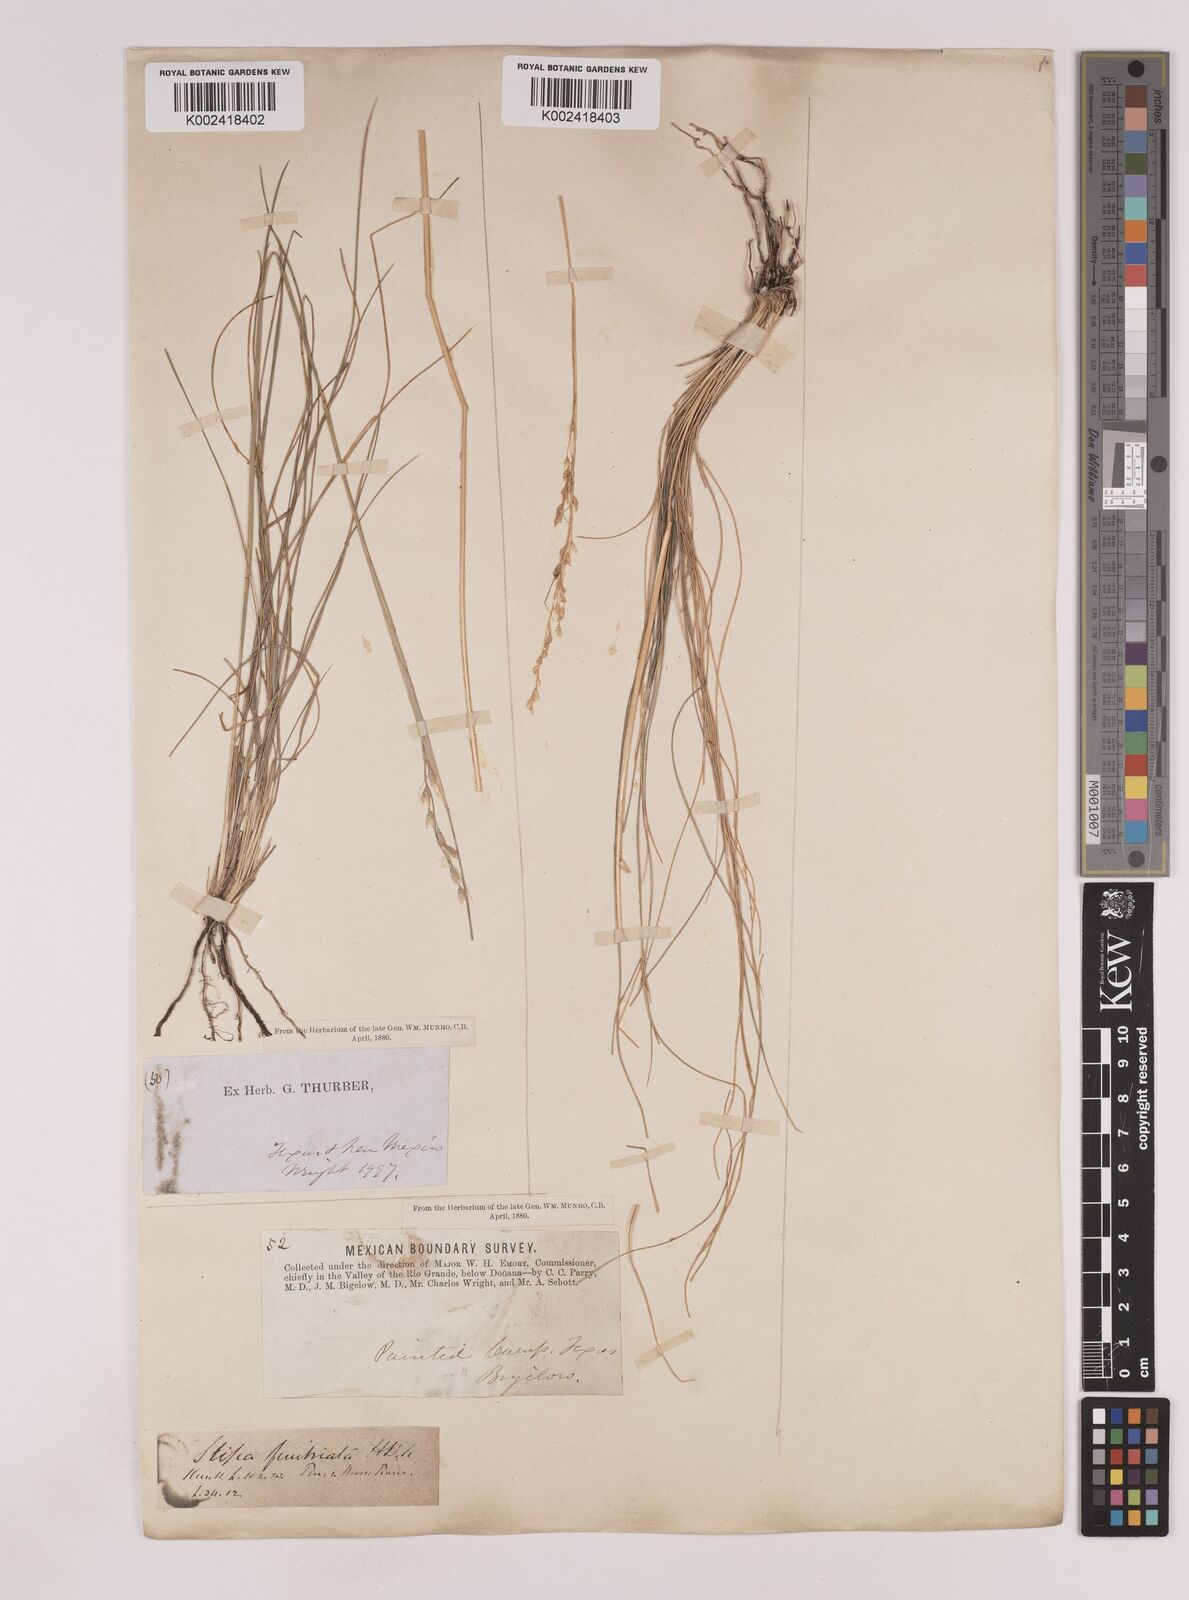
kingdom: Plantae
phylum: Tracheophyta
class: Liliopsida
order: Poales
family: Poaceae
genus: Piptochaetium
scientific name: Piptochaetium fimbriatum
